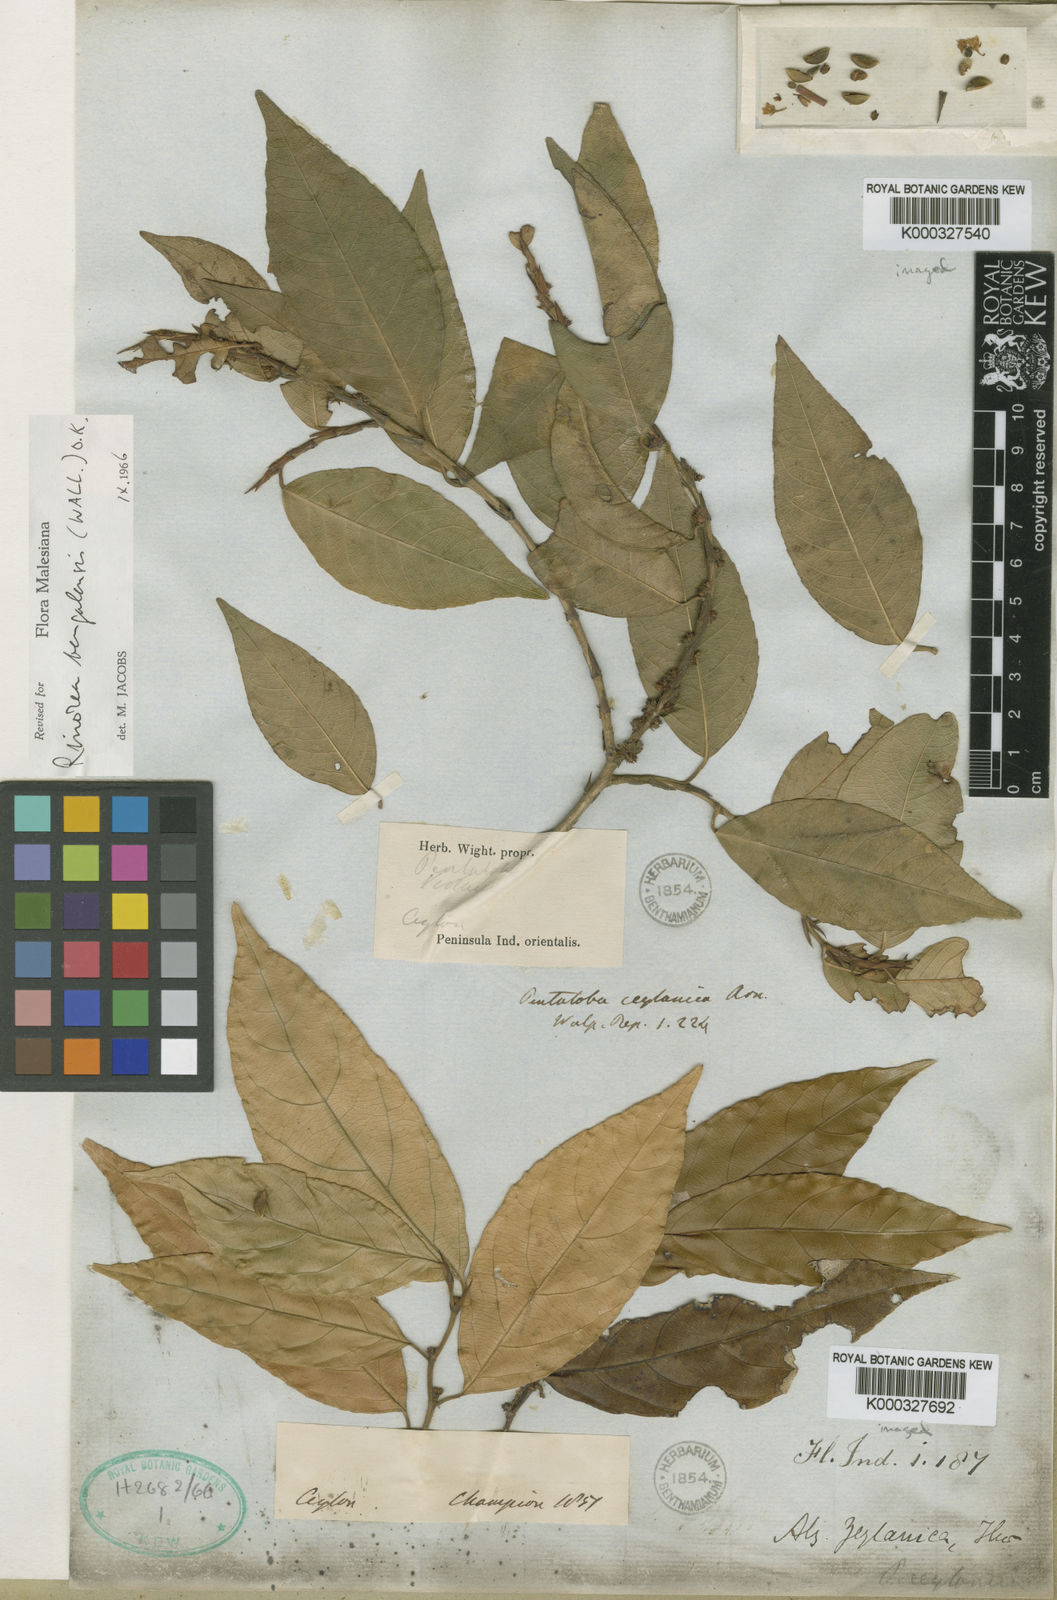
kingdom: Plantae
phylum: Tracheophyta
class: Magnoliopsida
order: Malpighiales
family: Violaceae
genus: Rinorea
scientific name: Rinorea
